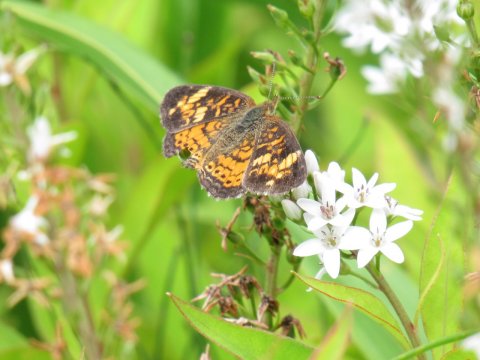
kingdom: Animalia
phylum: Arthropoda
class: Insecta
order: Lepidoptera
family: Nymphalidae
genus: Phyciodes
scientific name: Phyciodes
